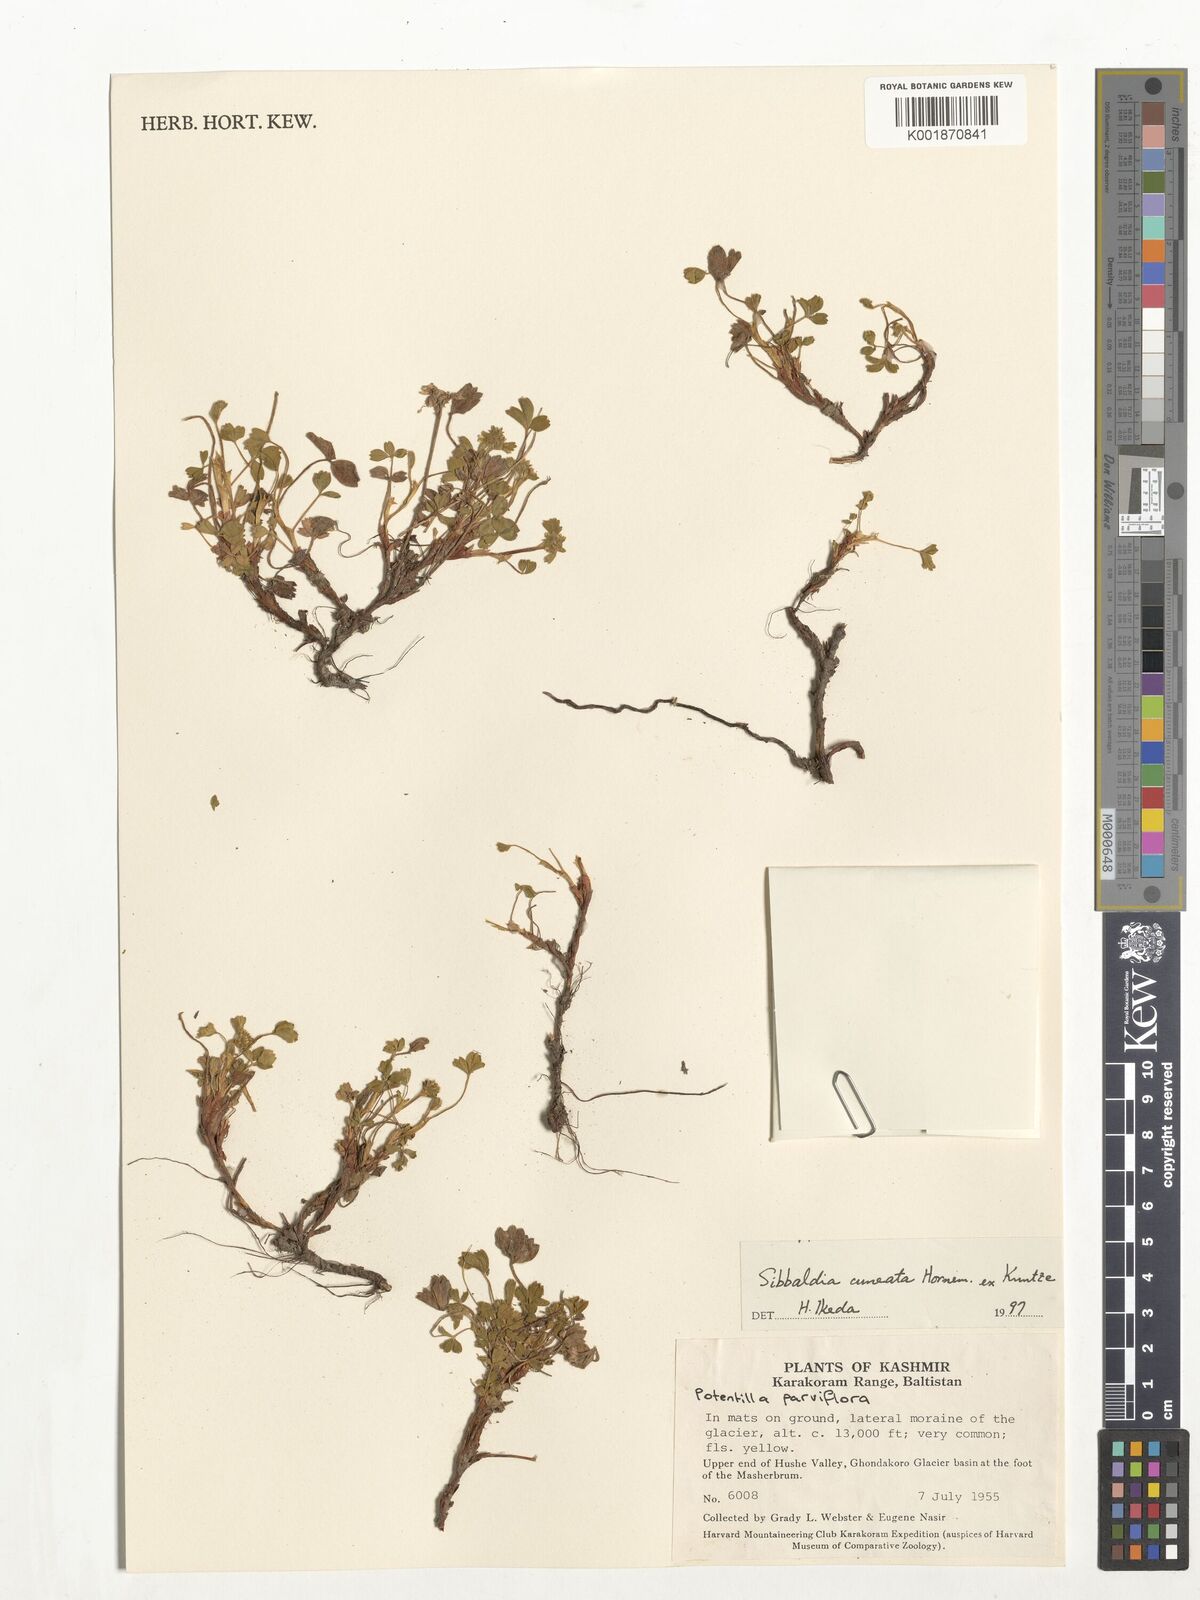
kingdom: Plantae
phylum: Tracheophyta
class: Magnoliopsida
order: Rosales
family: Rosaceae
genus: Sibbaldia
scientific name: Sibbaldia cuneata
